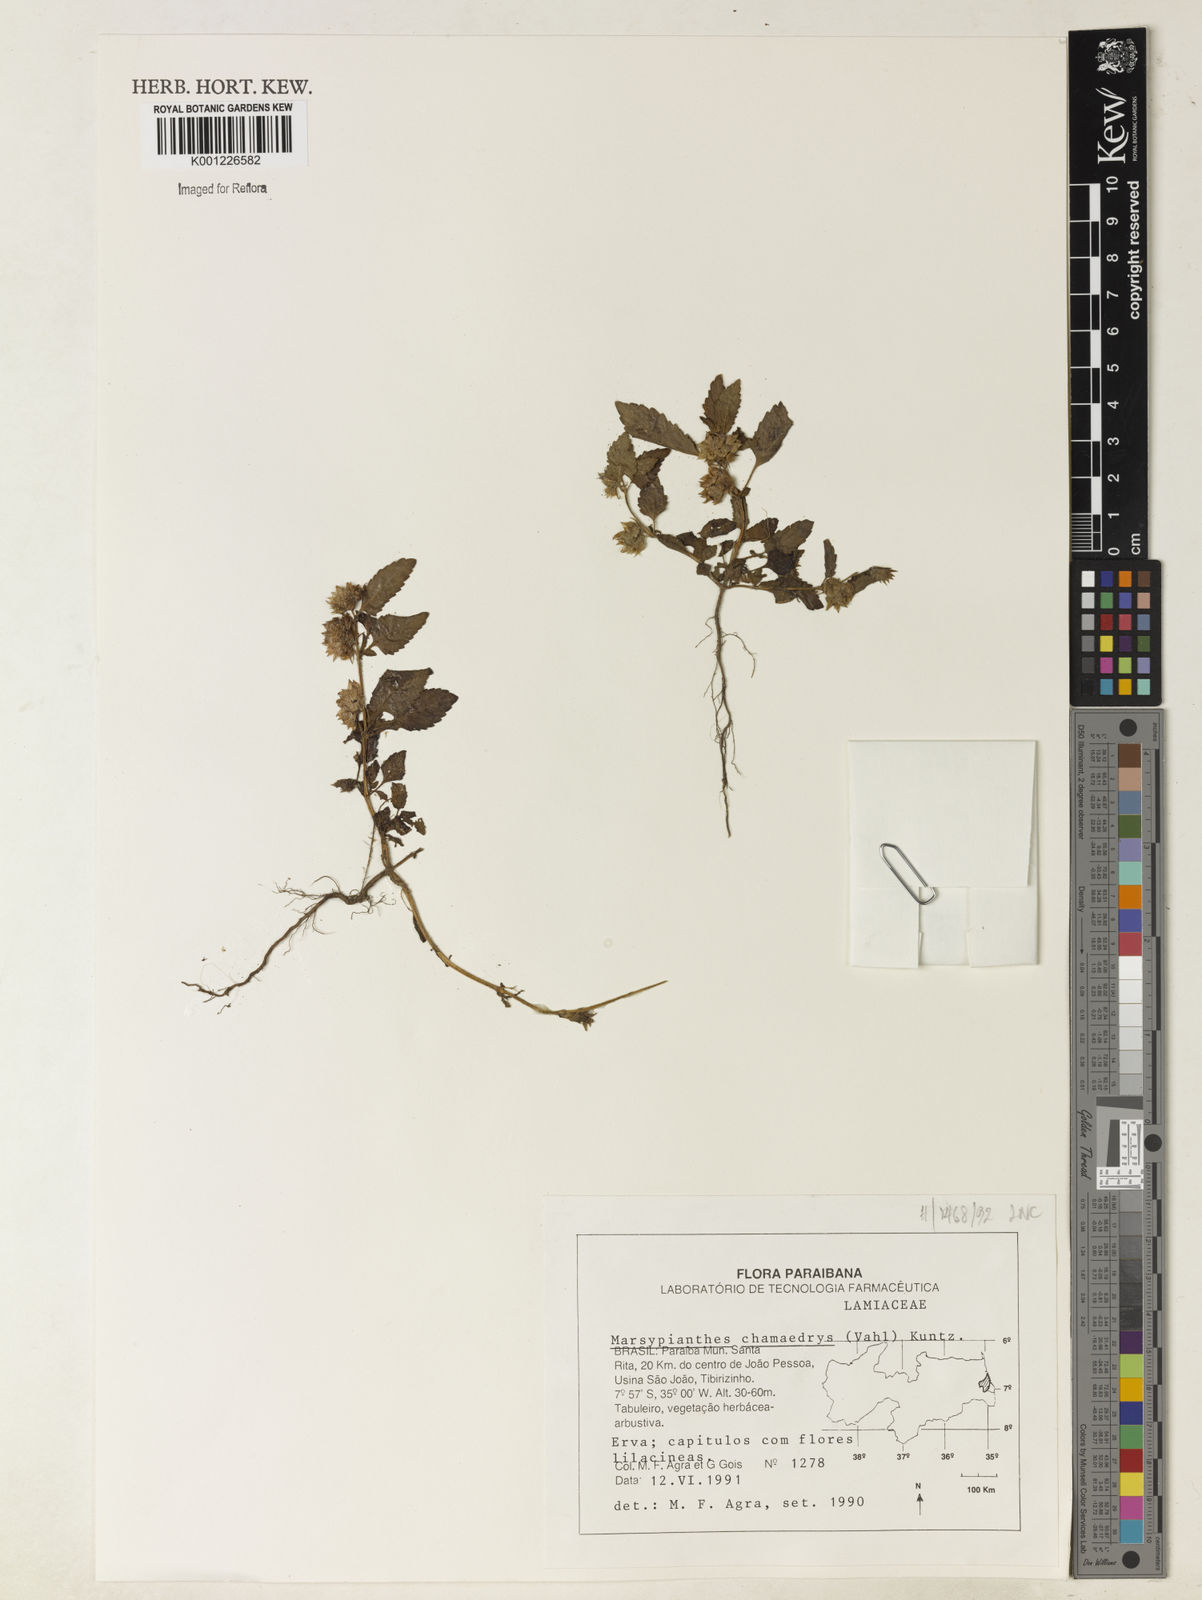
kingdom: Plantae
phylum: Tracheophyta
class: Magnoliopsida
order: Lamiales
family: Lamiaceae
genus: Marsypianthes
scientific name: Marsypianthes chamaedrys
